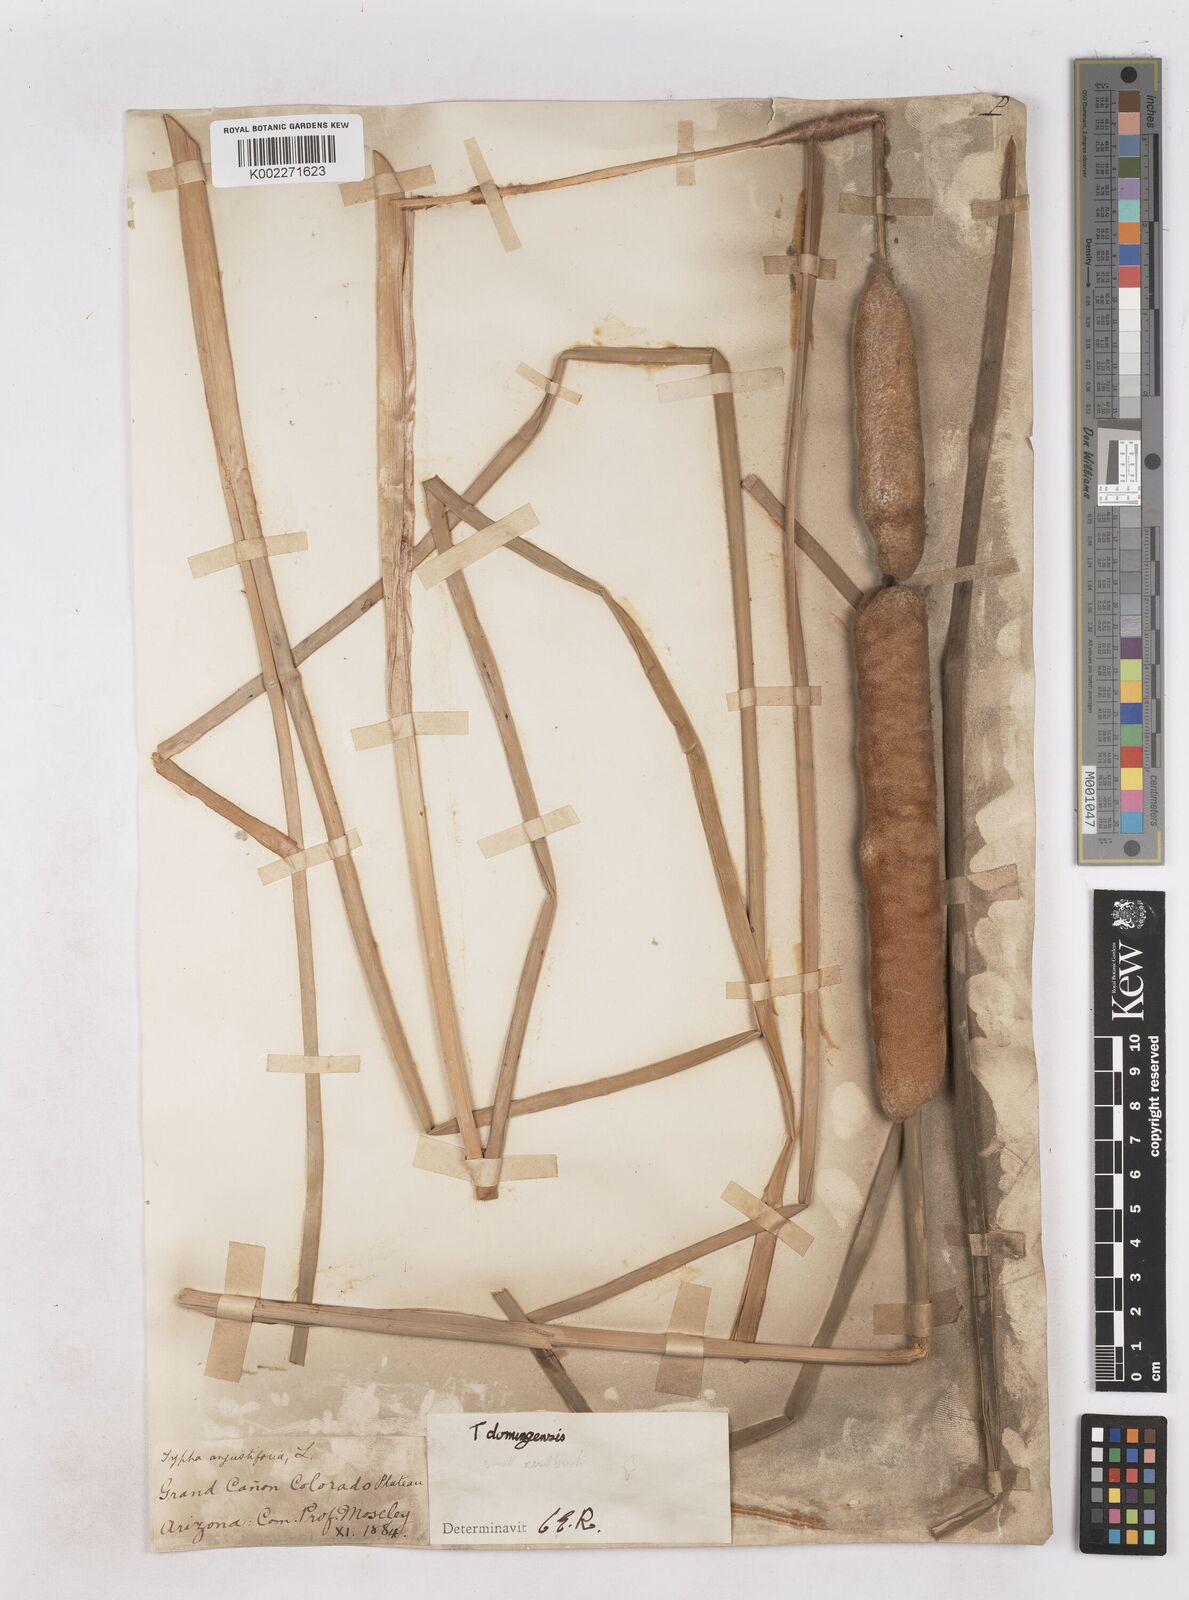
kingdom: Plantae
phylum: Tracheophyta
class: Liliopsida
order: Poales
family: Typhaceae
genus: Typha
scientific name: Typha domingensis
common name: Southern cattail
